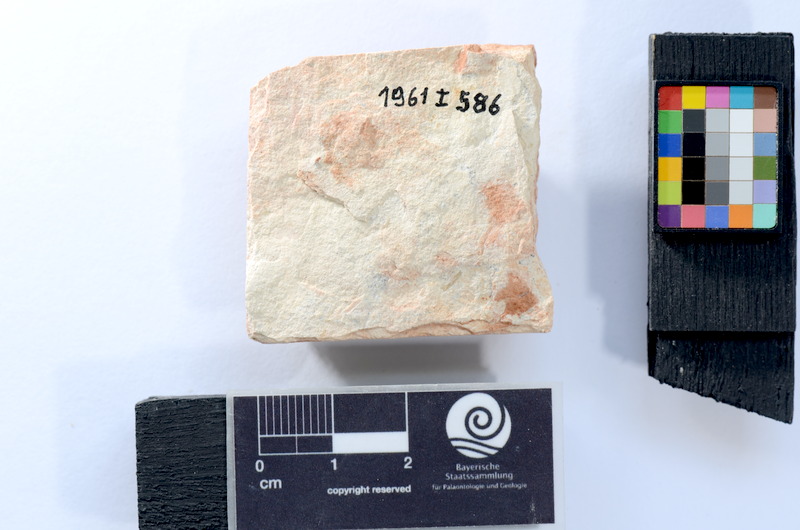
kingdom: Animalia
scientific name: Animalia
